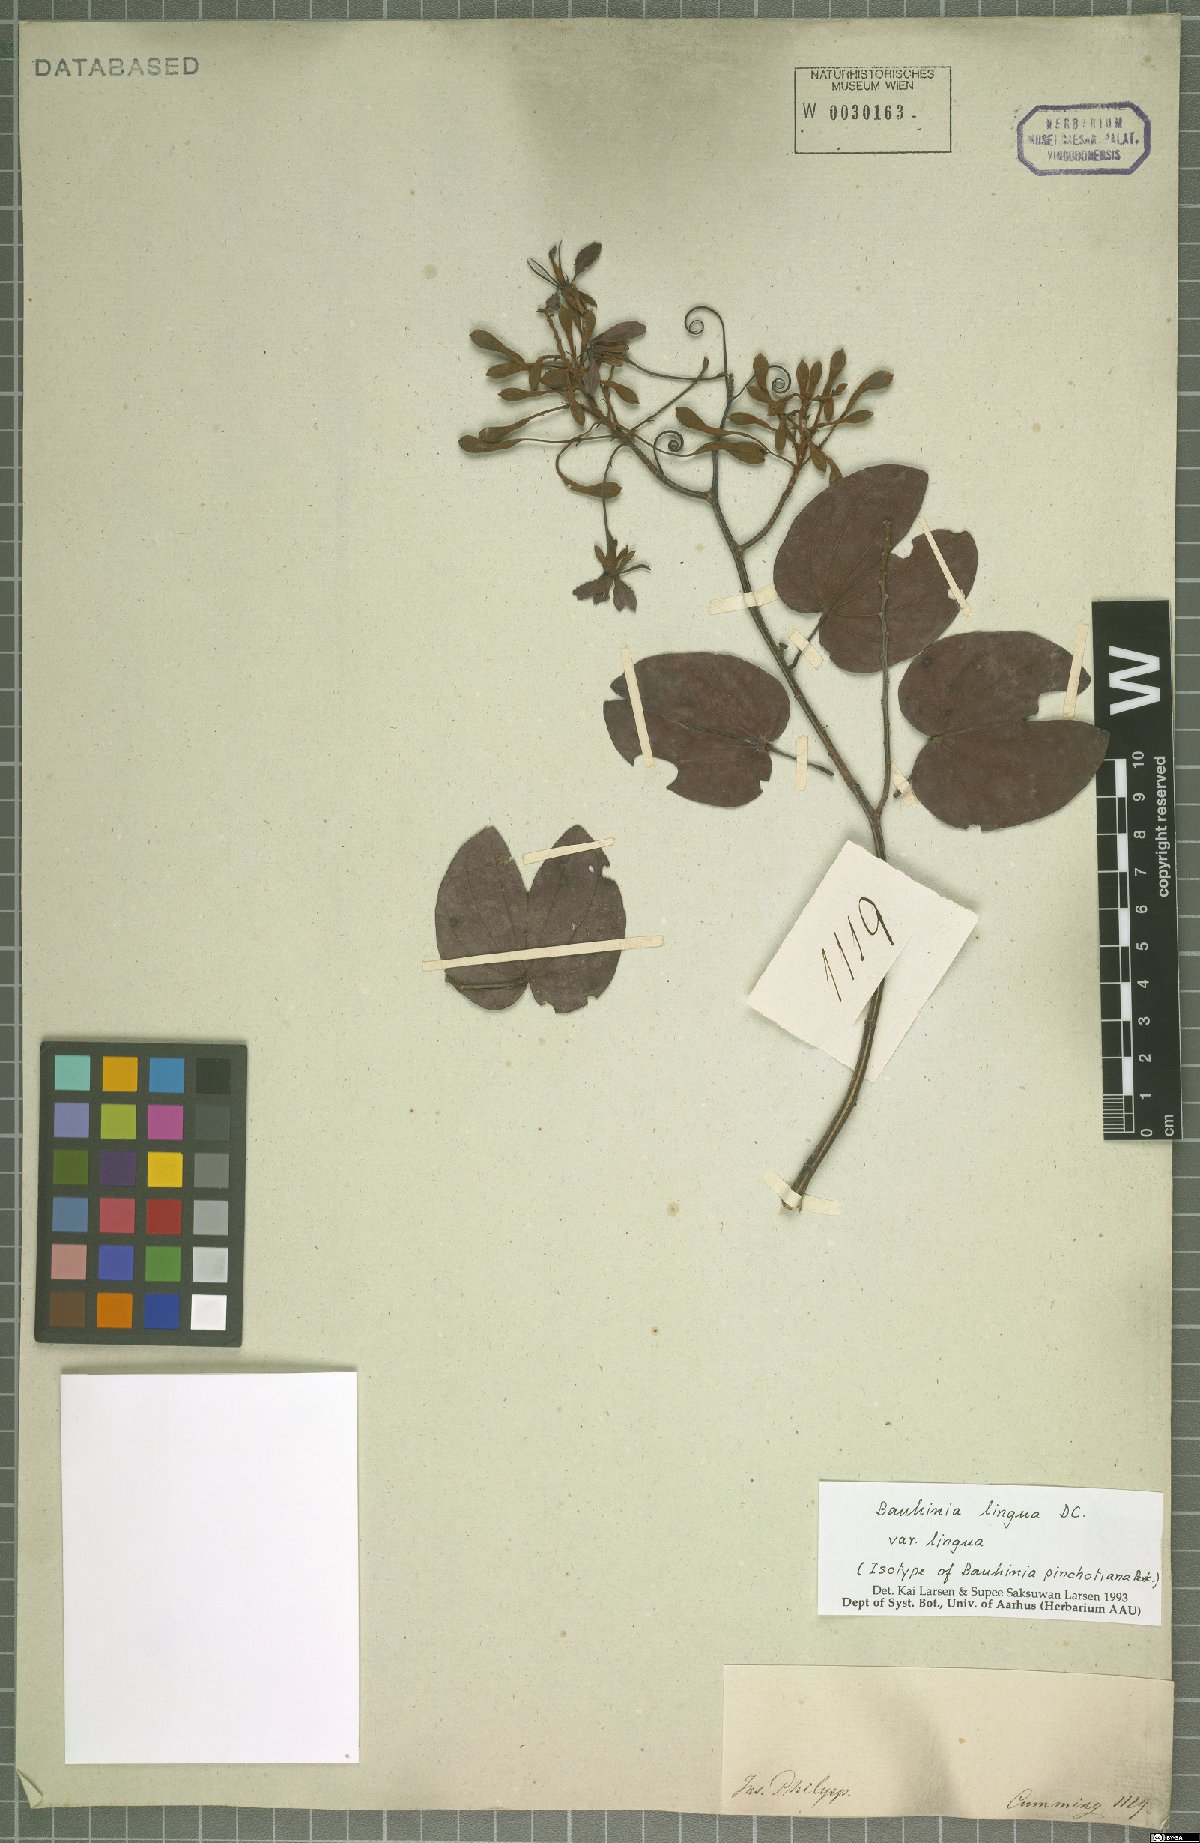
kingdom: Plantae
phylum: Tracheophyta
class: Magnoliopsida
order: Fabales
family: Fabaceae
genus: Phanera
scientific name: Phanera lingua
